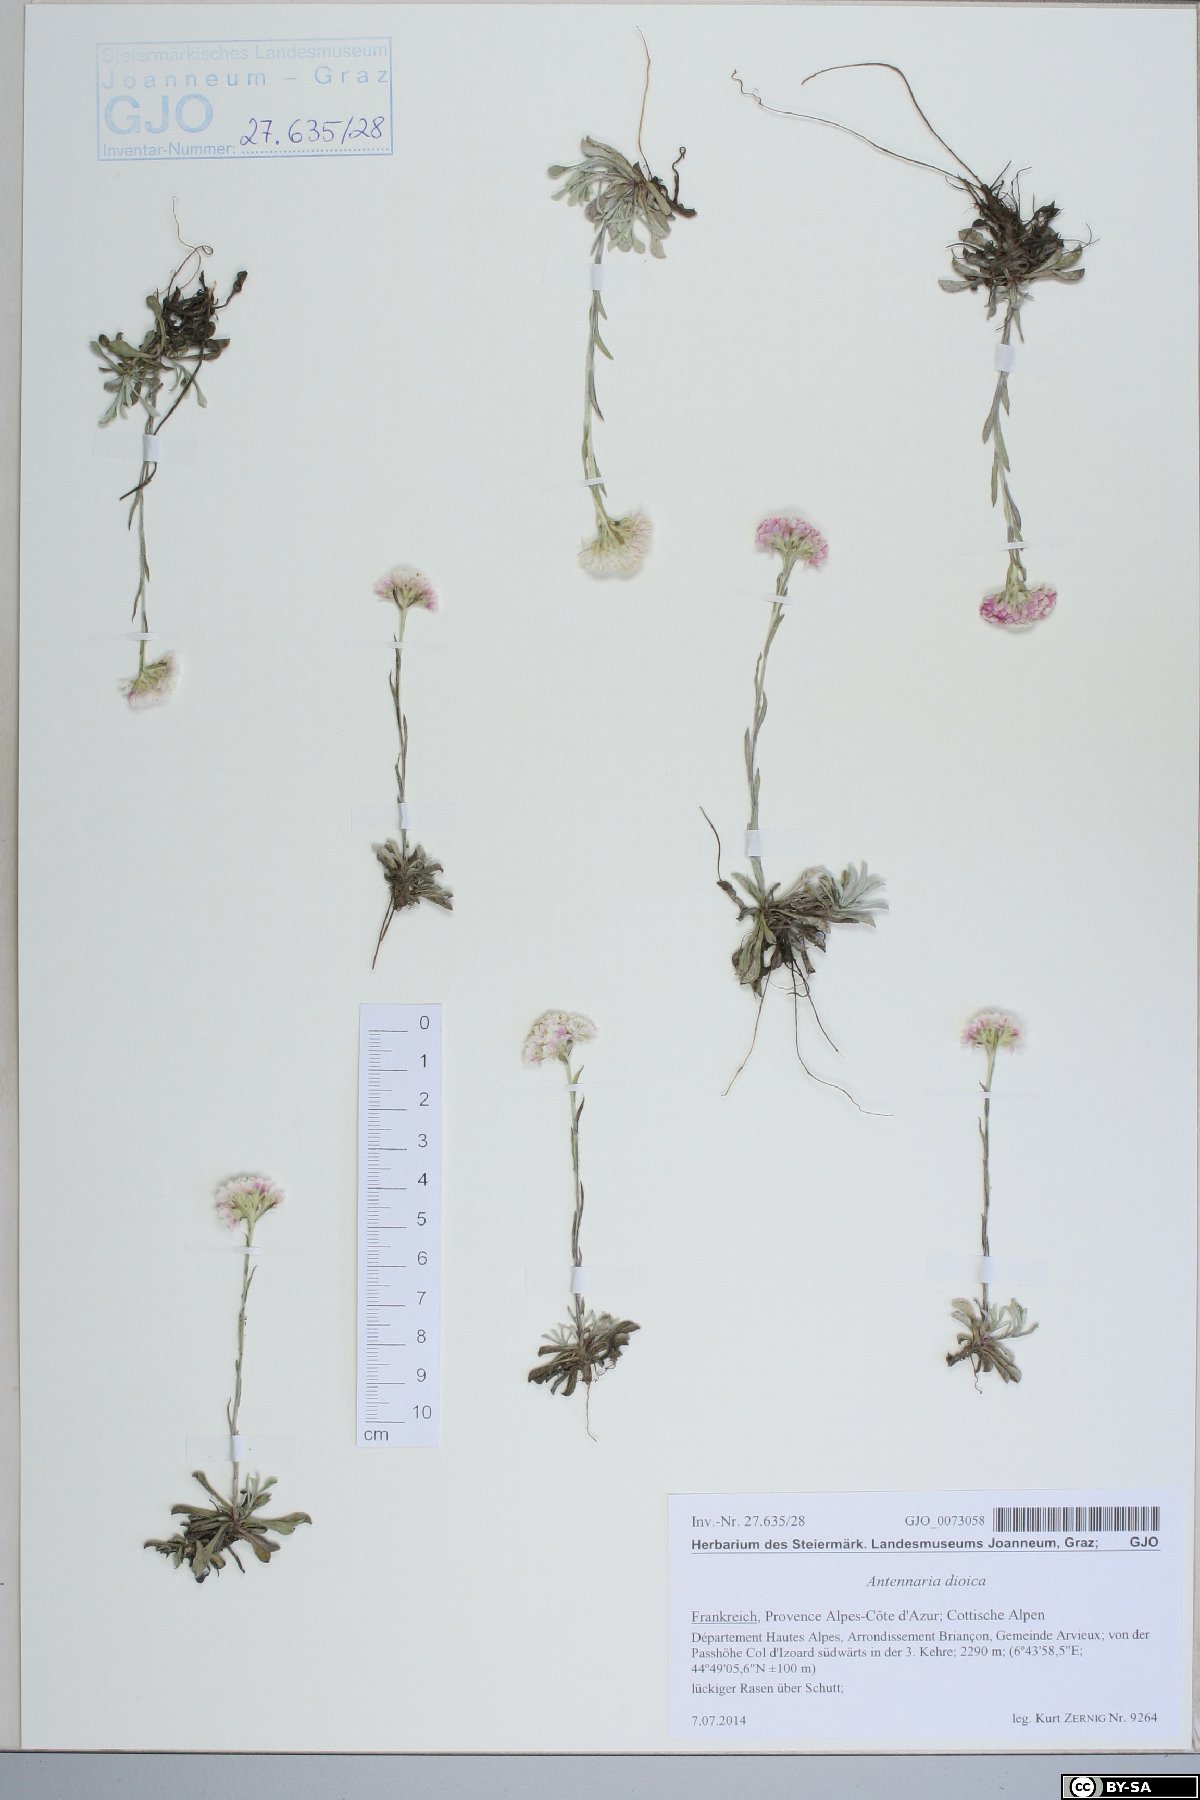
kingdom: Plantae
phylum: Tracheophyta
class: Magnoliopsida
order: Asterales
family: Asteraceae
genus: Antennaria
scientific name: Antennaria dioica
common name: Mountain everlasting
